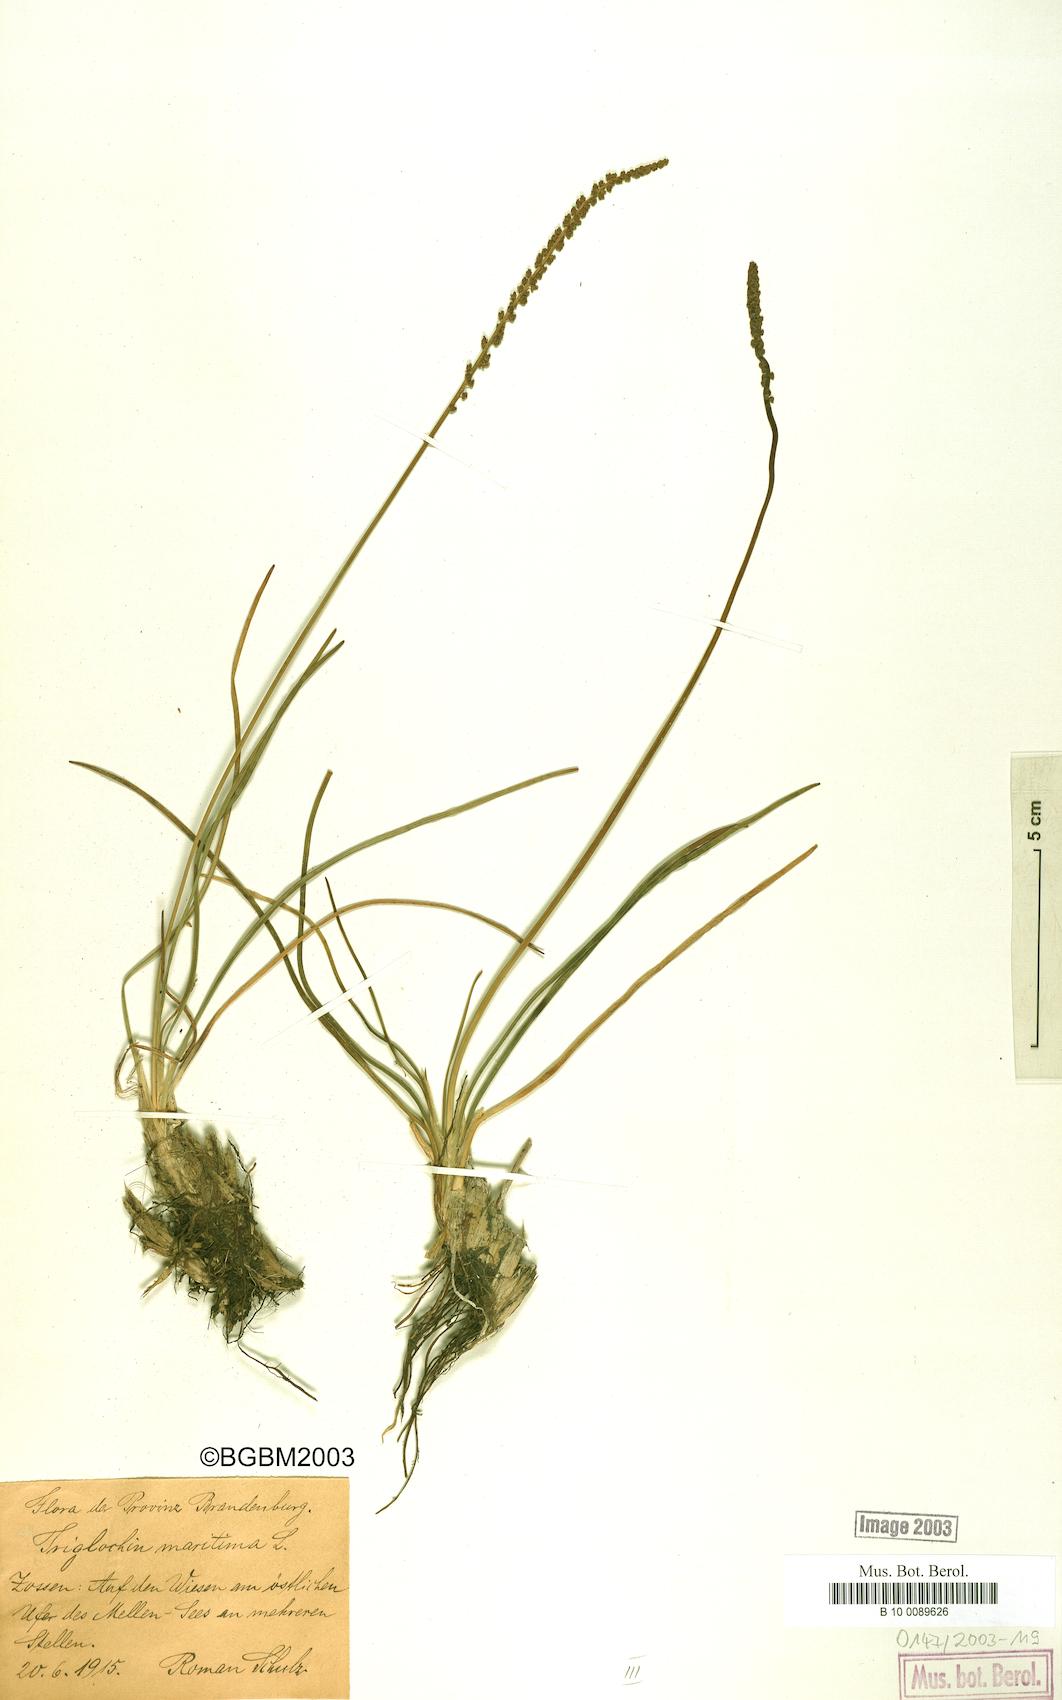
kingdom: Plantae
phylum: Tracheophyta
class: Liliopsida
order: Alismatales
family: Juncaginaceae
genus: Triglochin
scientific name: Triglochin maritima
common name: Sea arrowgrass
